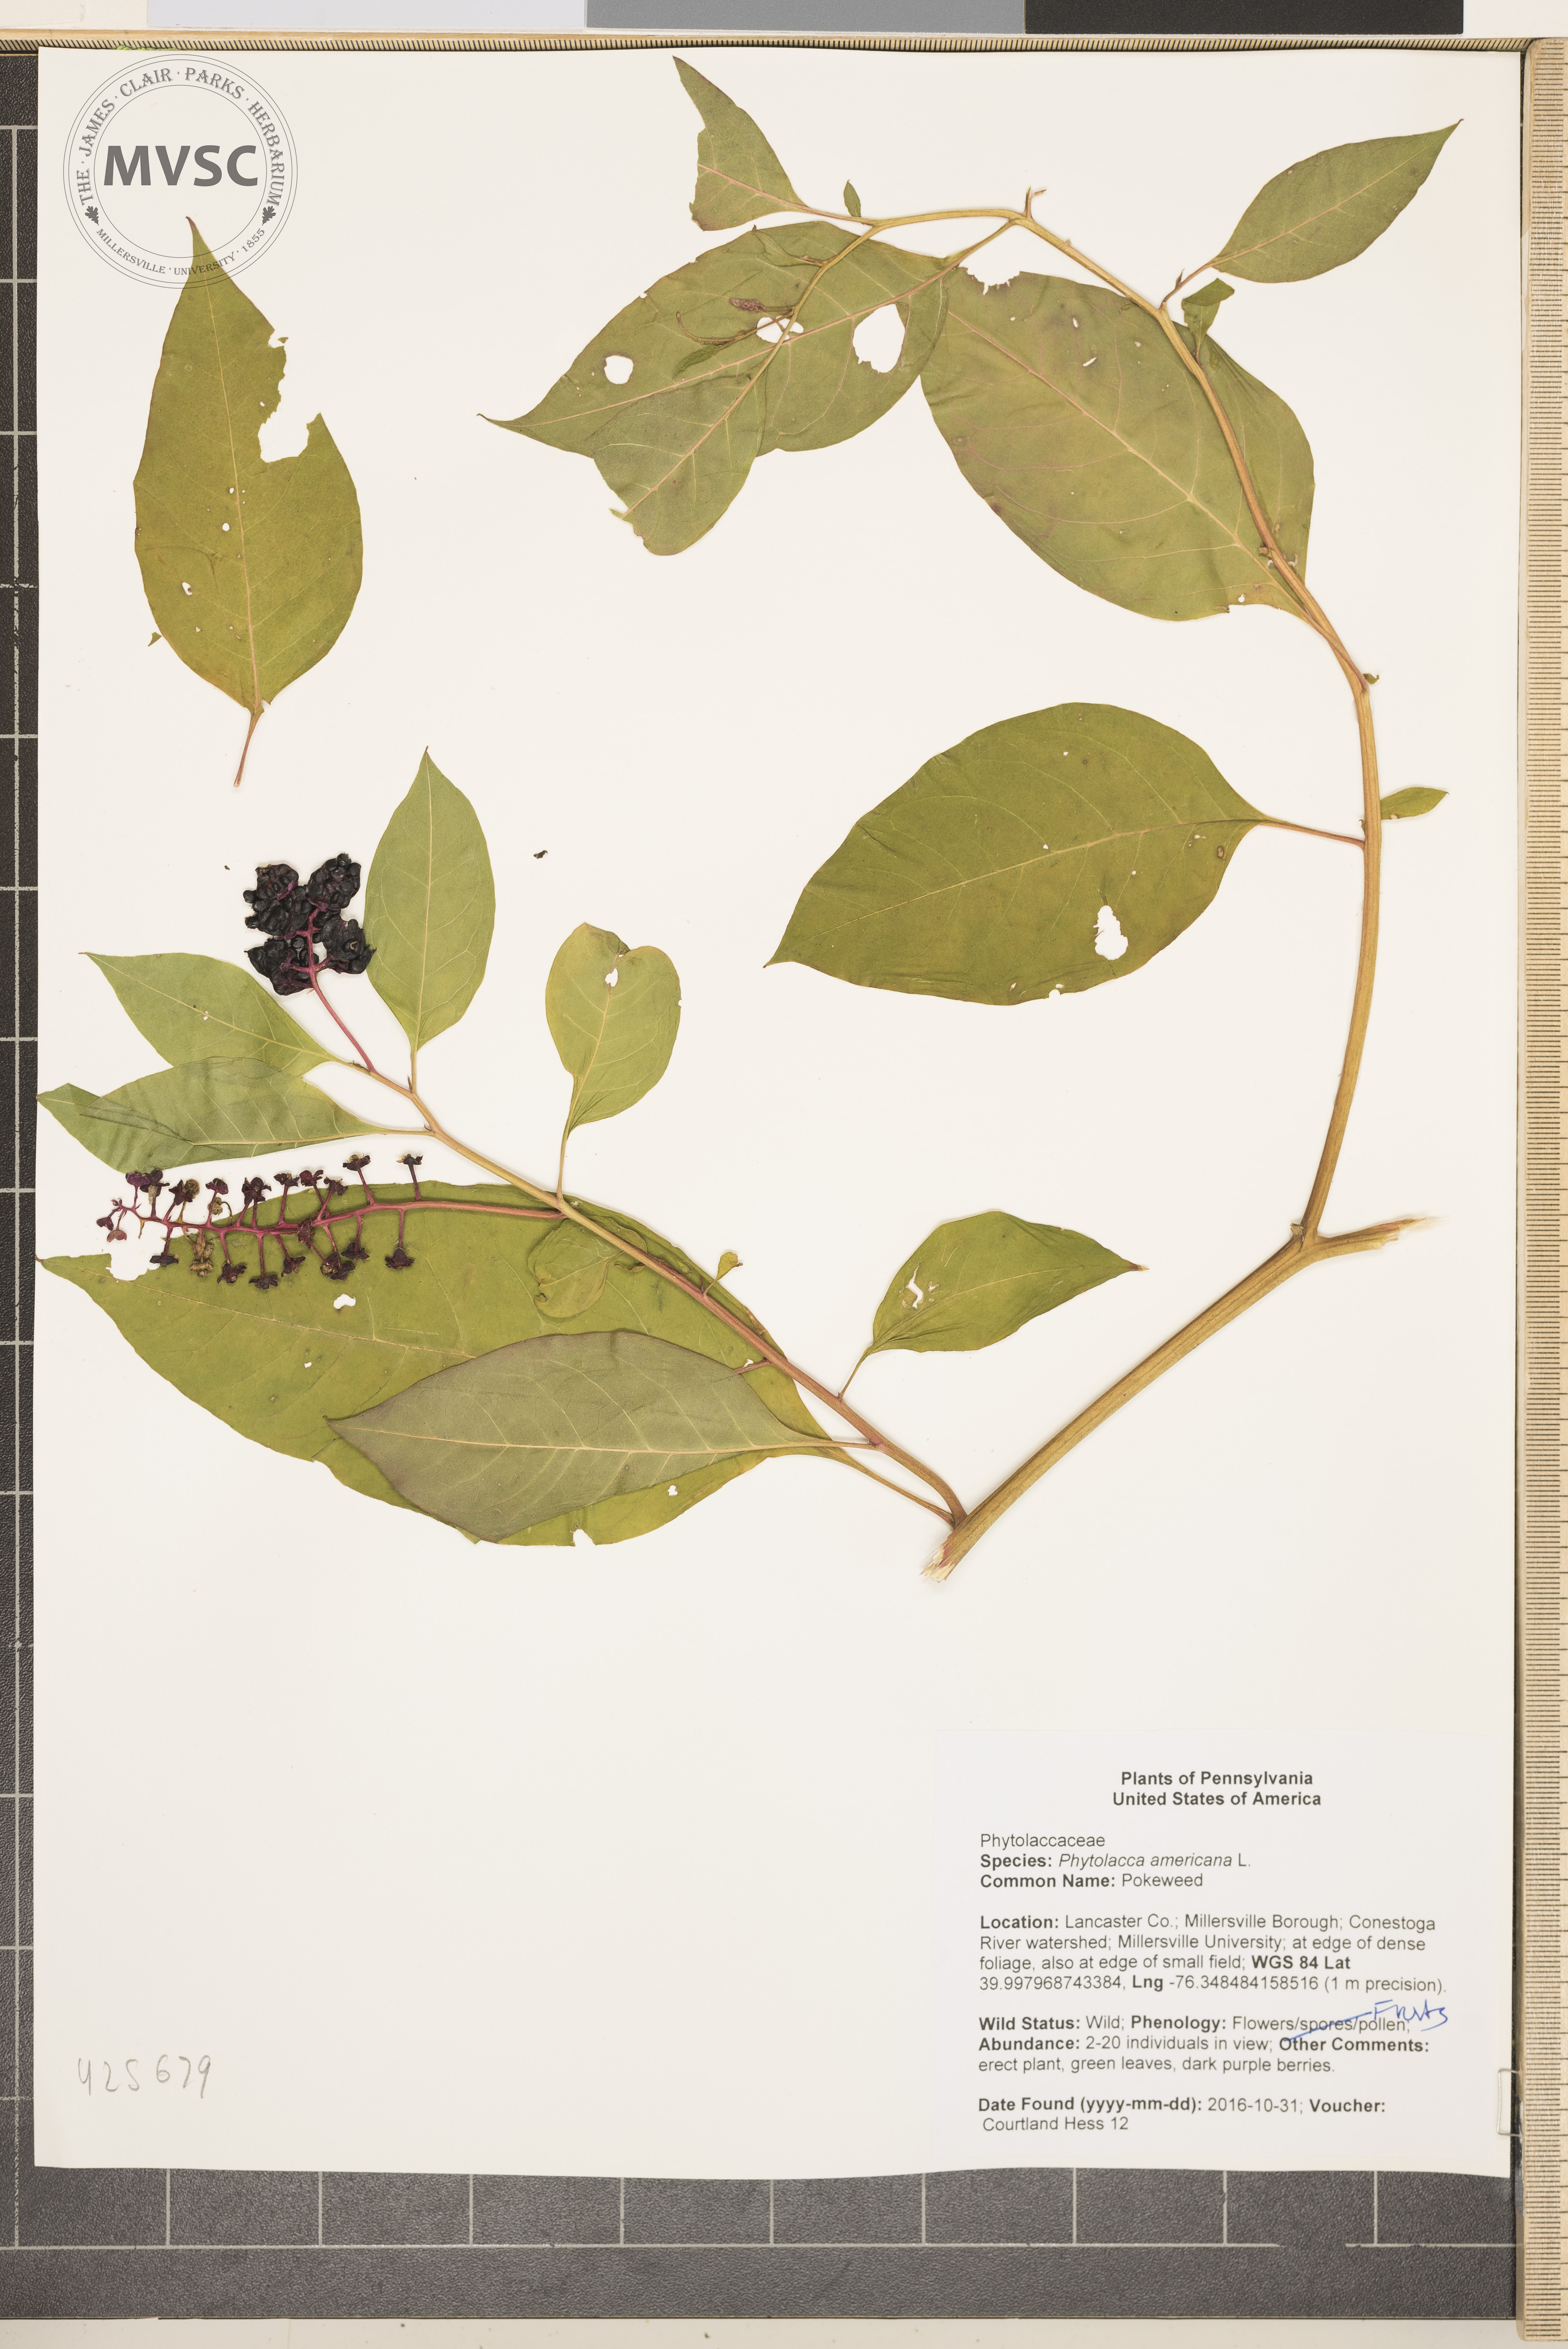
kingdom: Plantae
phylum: Tracheophyta
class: Magnoliopsida
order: Caryophyllales
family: Phytolaccaceae
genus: Phytolacca
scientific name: Phytolacca americana
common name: Pokeweed
